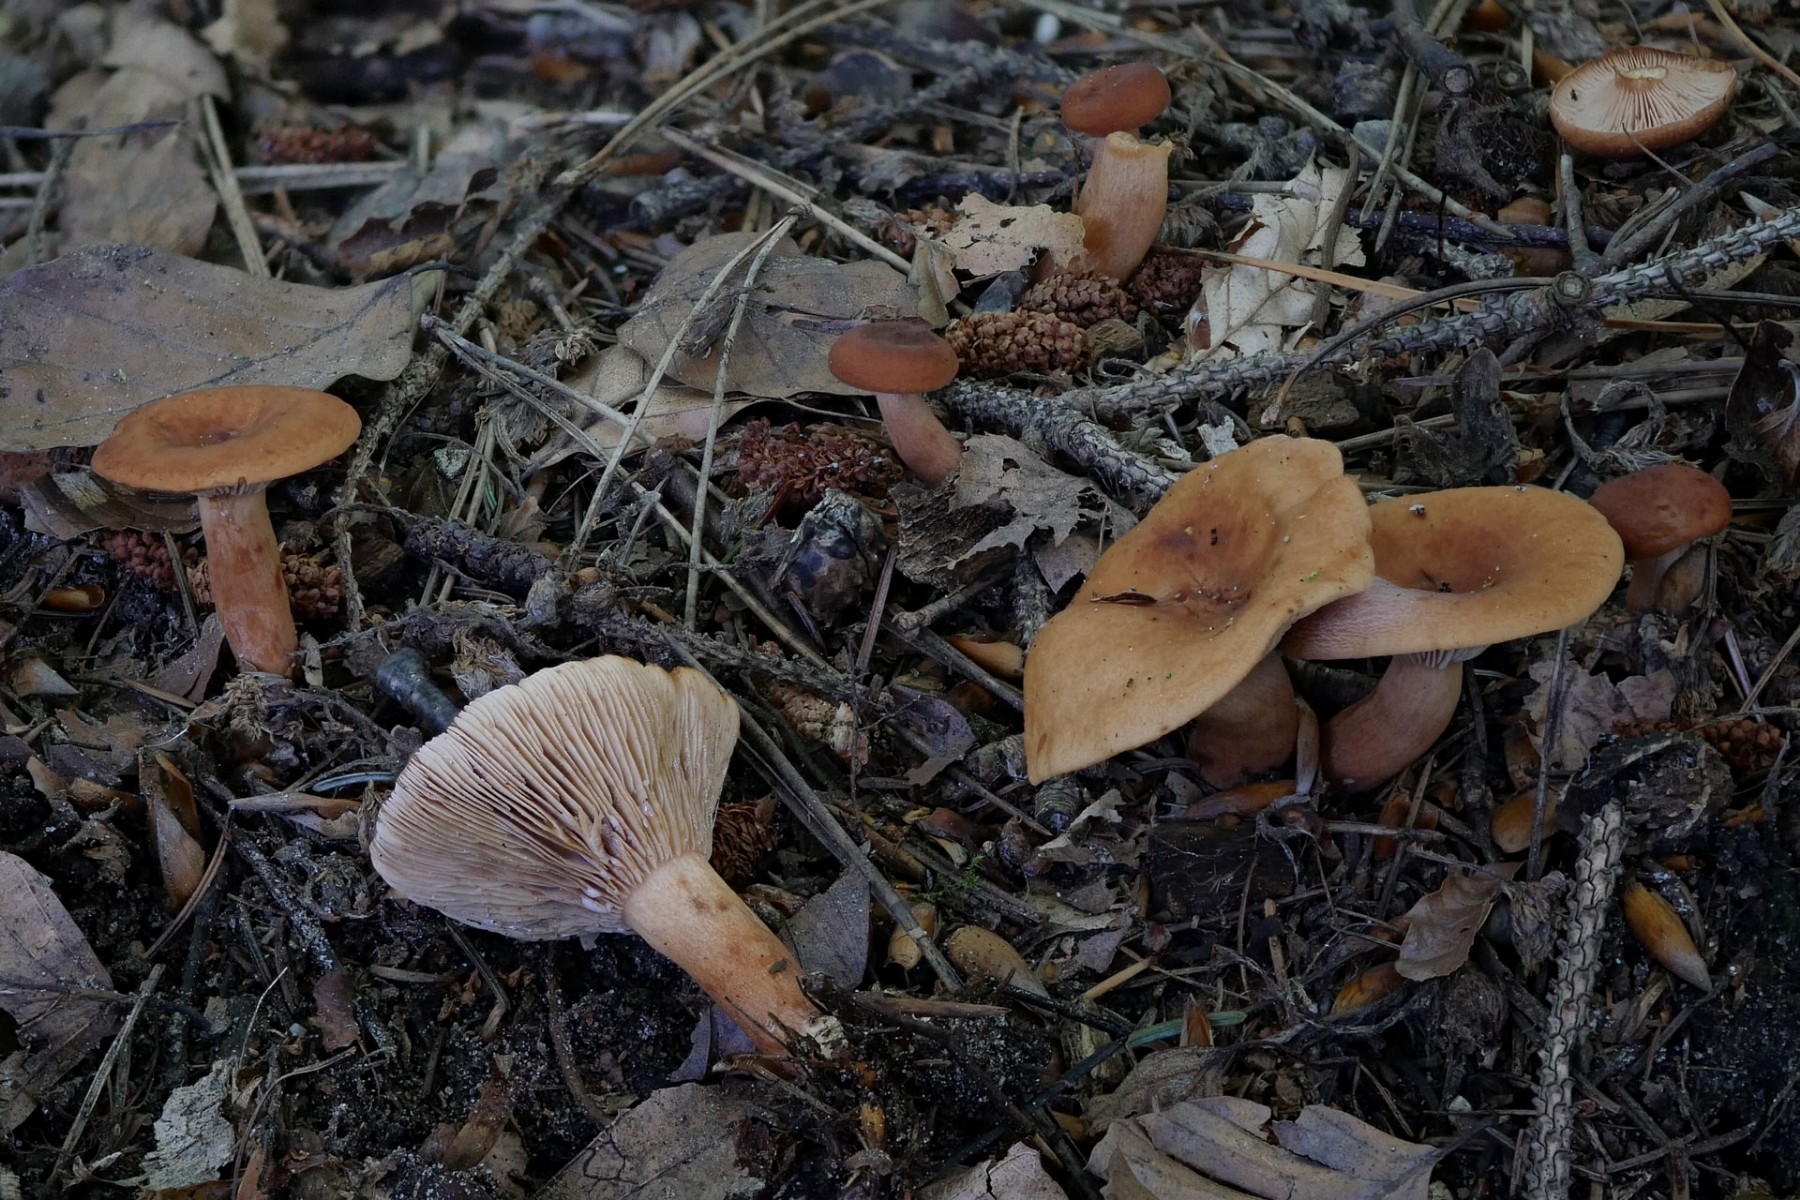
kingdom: Fungi
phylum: Basidiomycota
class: Agaricomycetes
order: Russulales
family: Russulaceae
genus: Lactarius
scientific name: Lactarius subdulcis
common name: sødlig mælkehat
